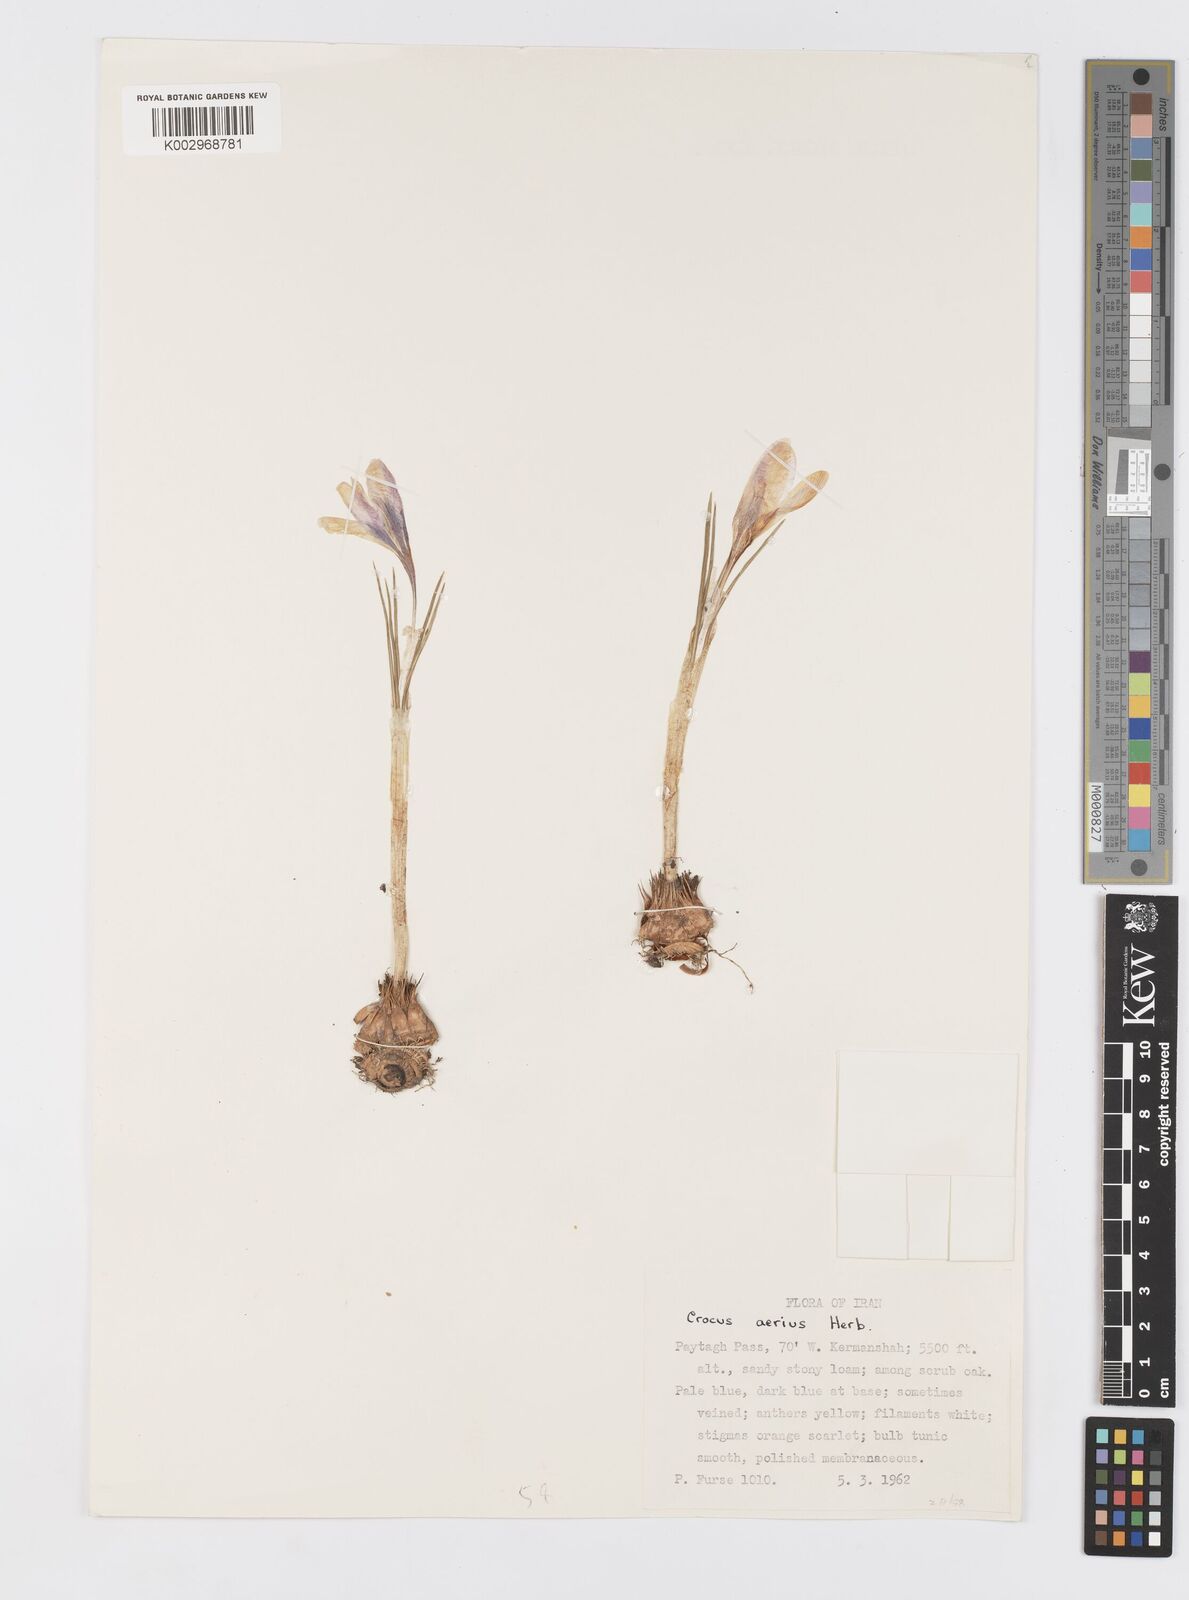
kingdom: Plantae
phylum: Tracheophyta
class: Liliopsida
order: Asparagales
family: Iridaceae
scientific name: Iridaceae
